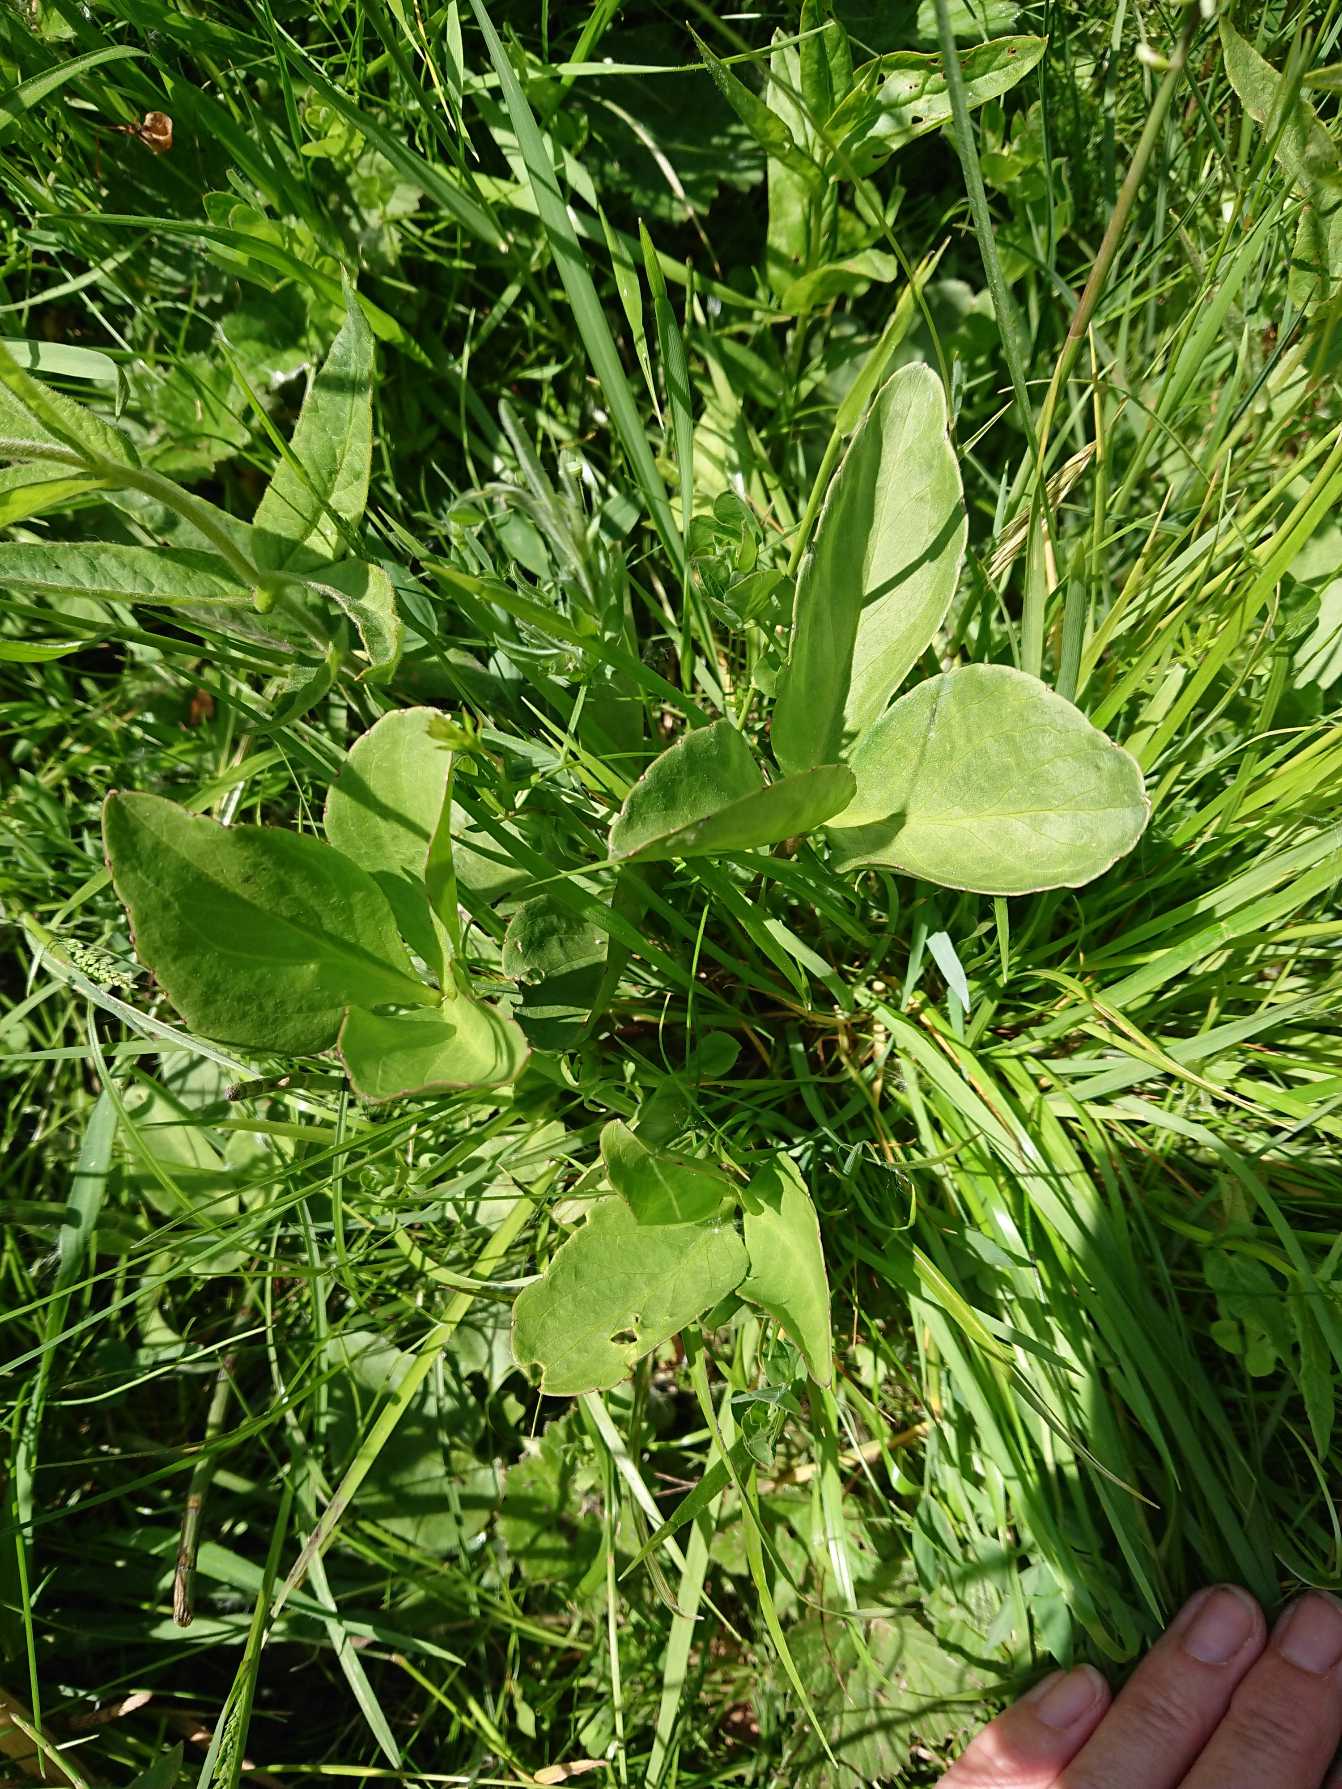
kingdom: Plantae
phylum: Tracheophyta
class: Magnoliopsida
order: Asterales
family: Menyanthaceae
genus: Menyanthes
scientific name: Menyanthes trifoliata
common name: Bukkeblad
